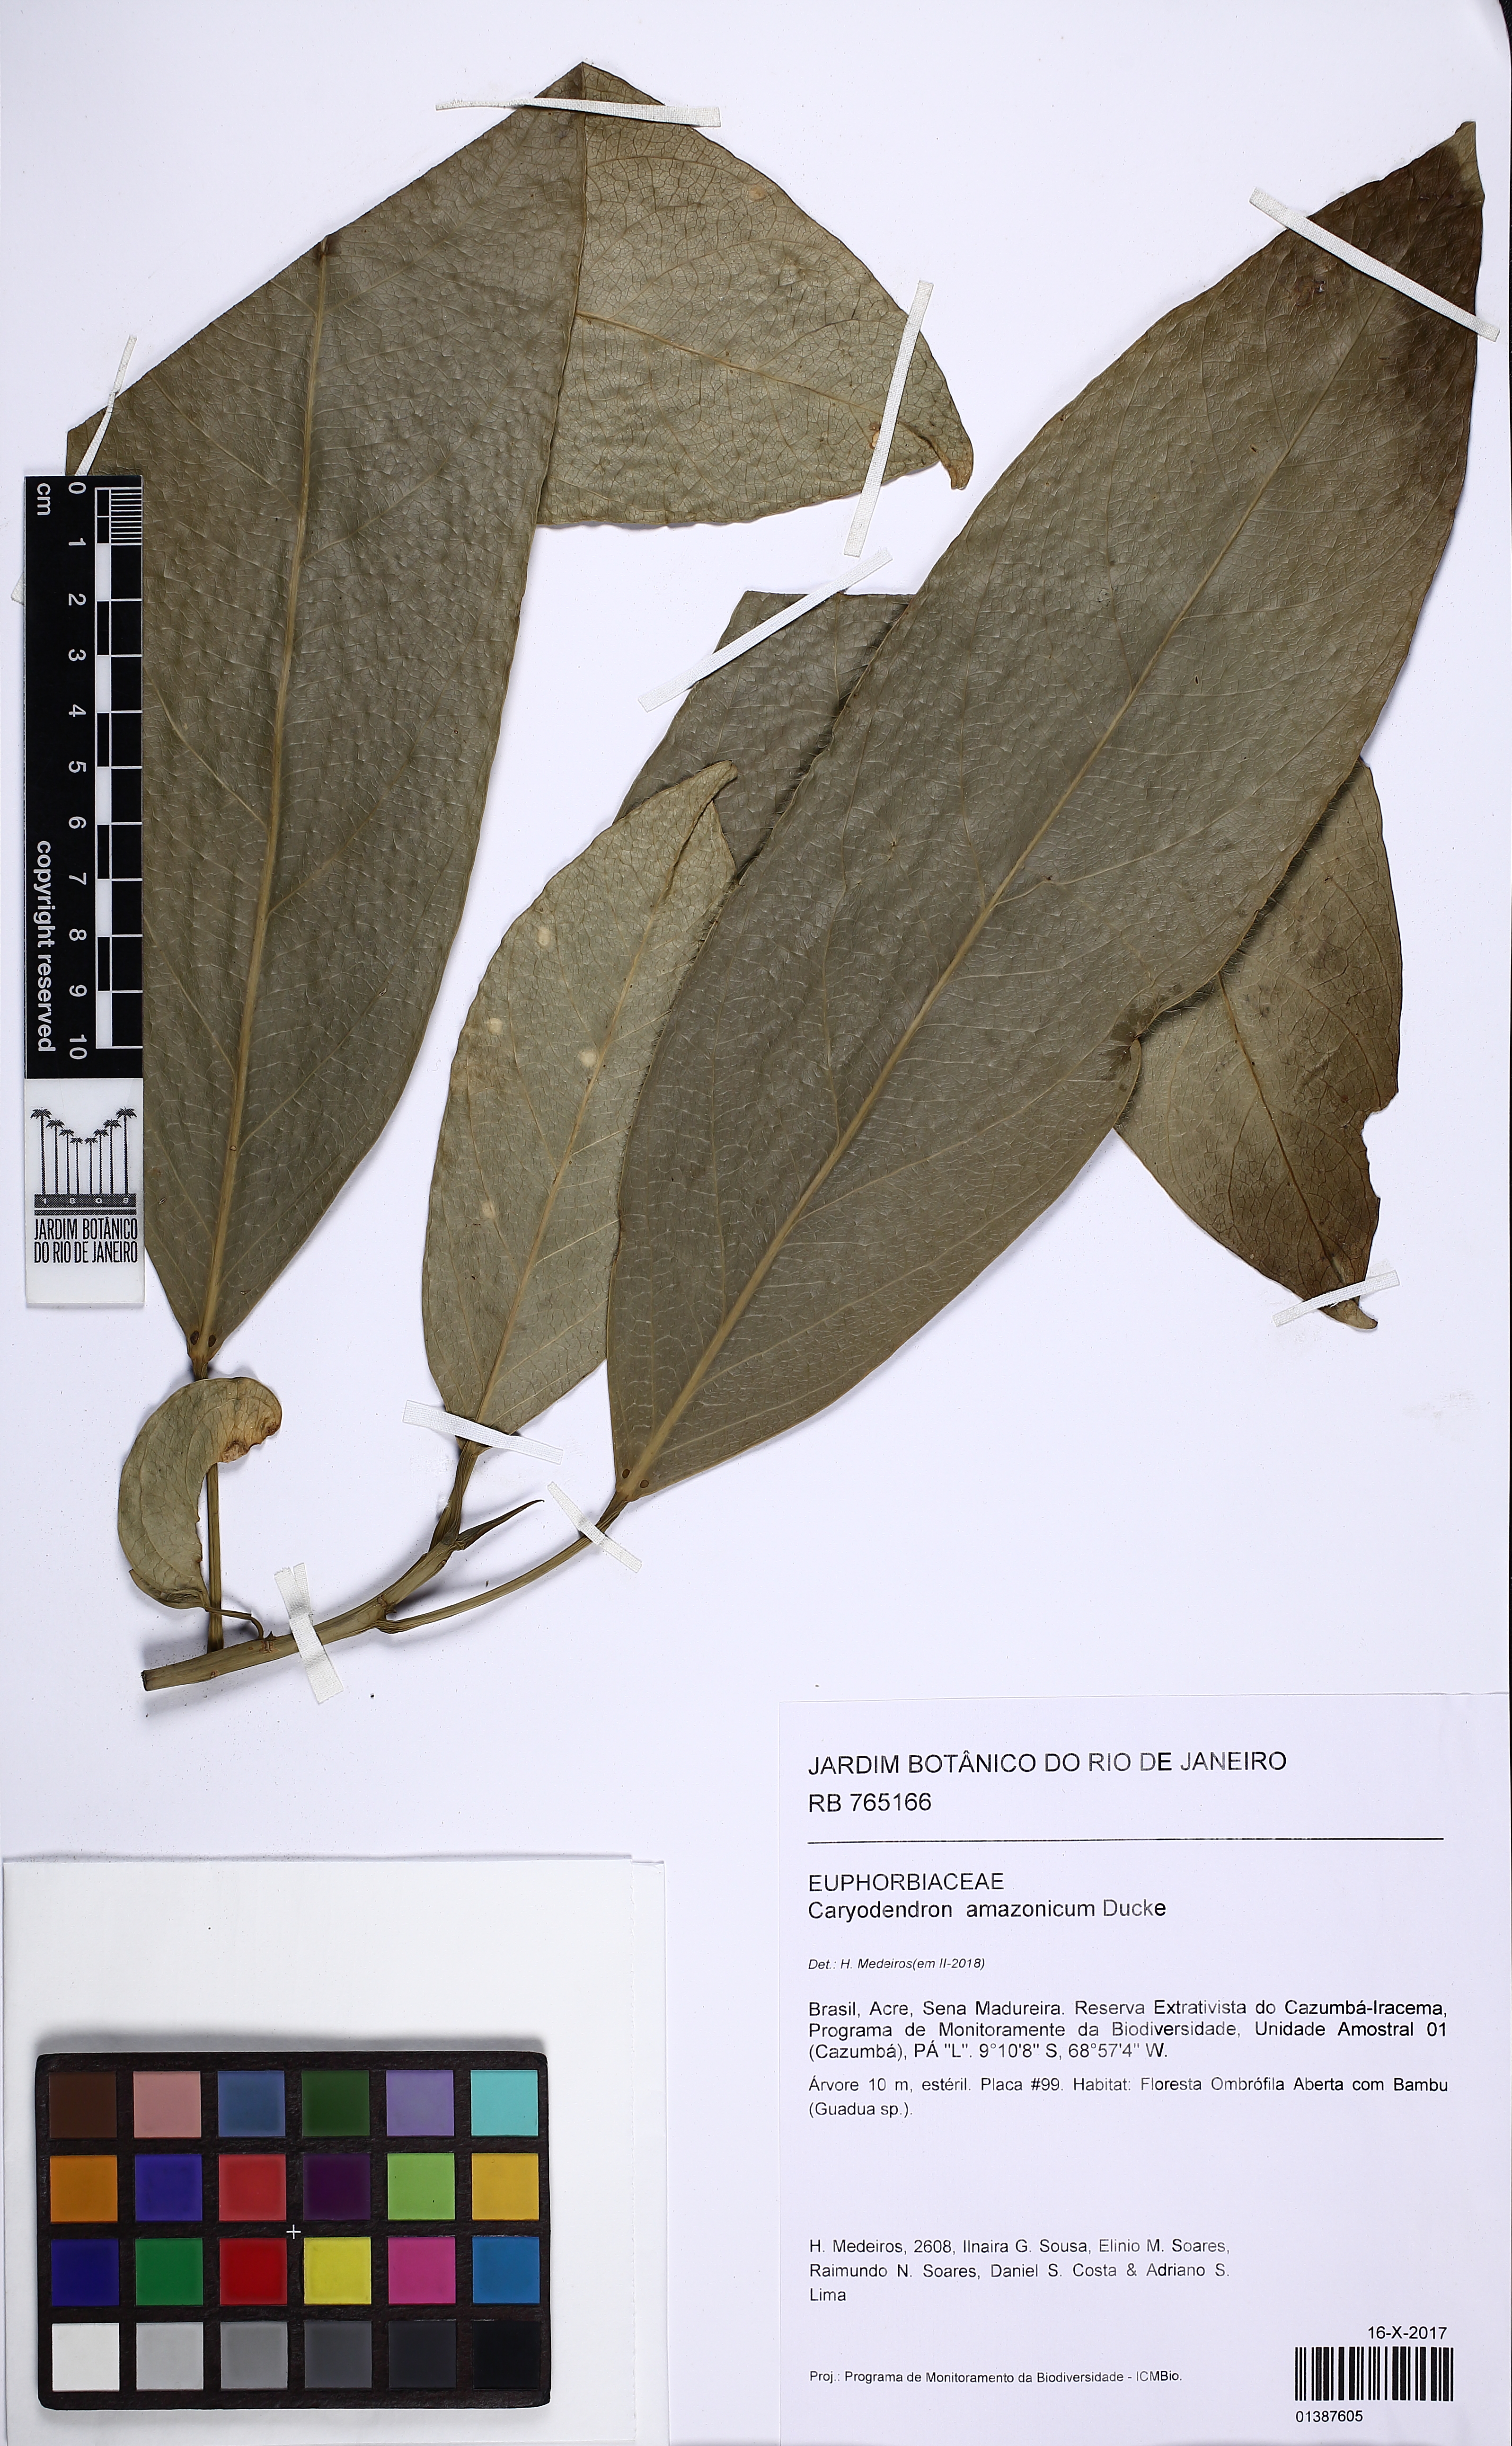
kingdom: Plantae
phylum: Tracheophyta
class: Magnoliopsida
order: Malpighiales
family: Euphorbiaceae
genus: Caryodendron
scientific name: Caryodendron amazonicum
